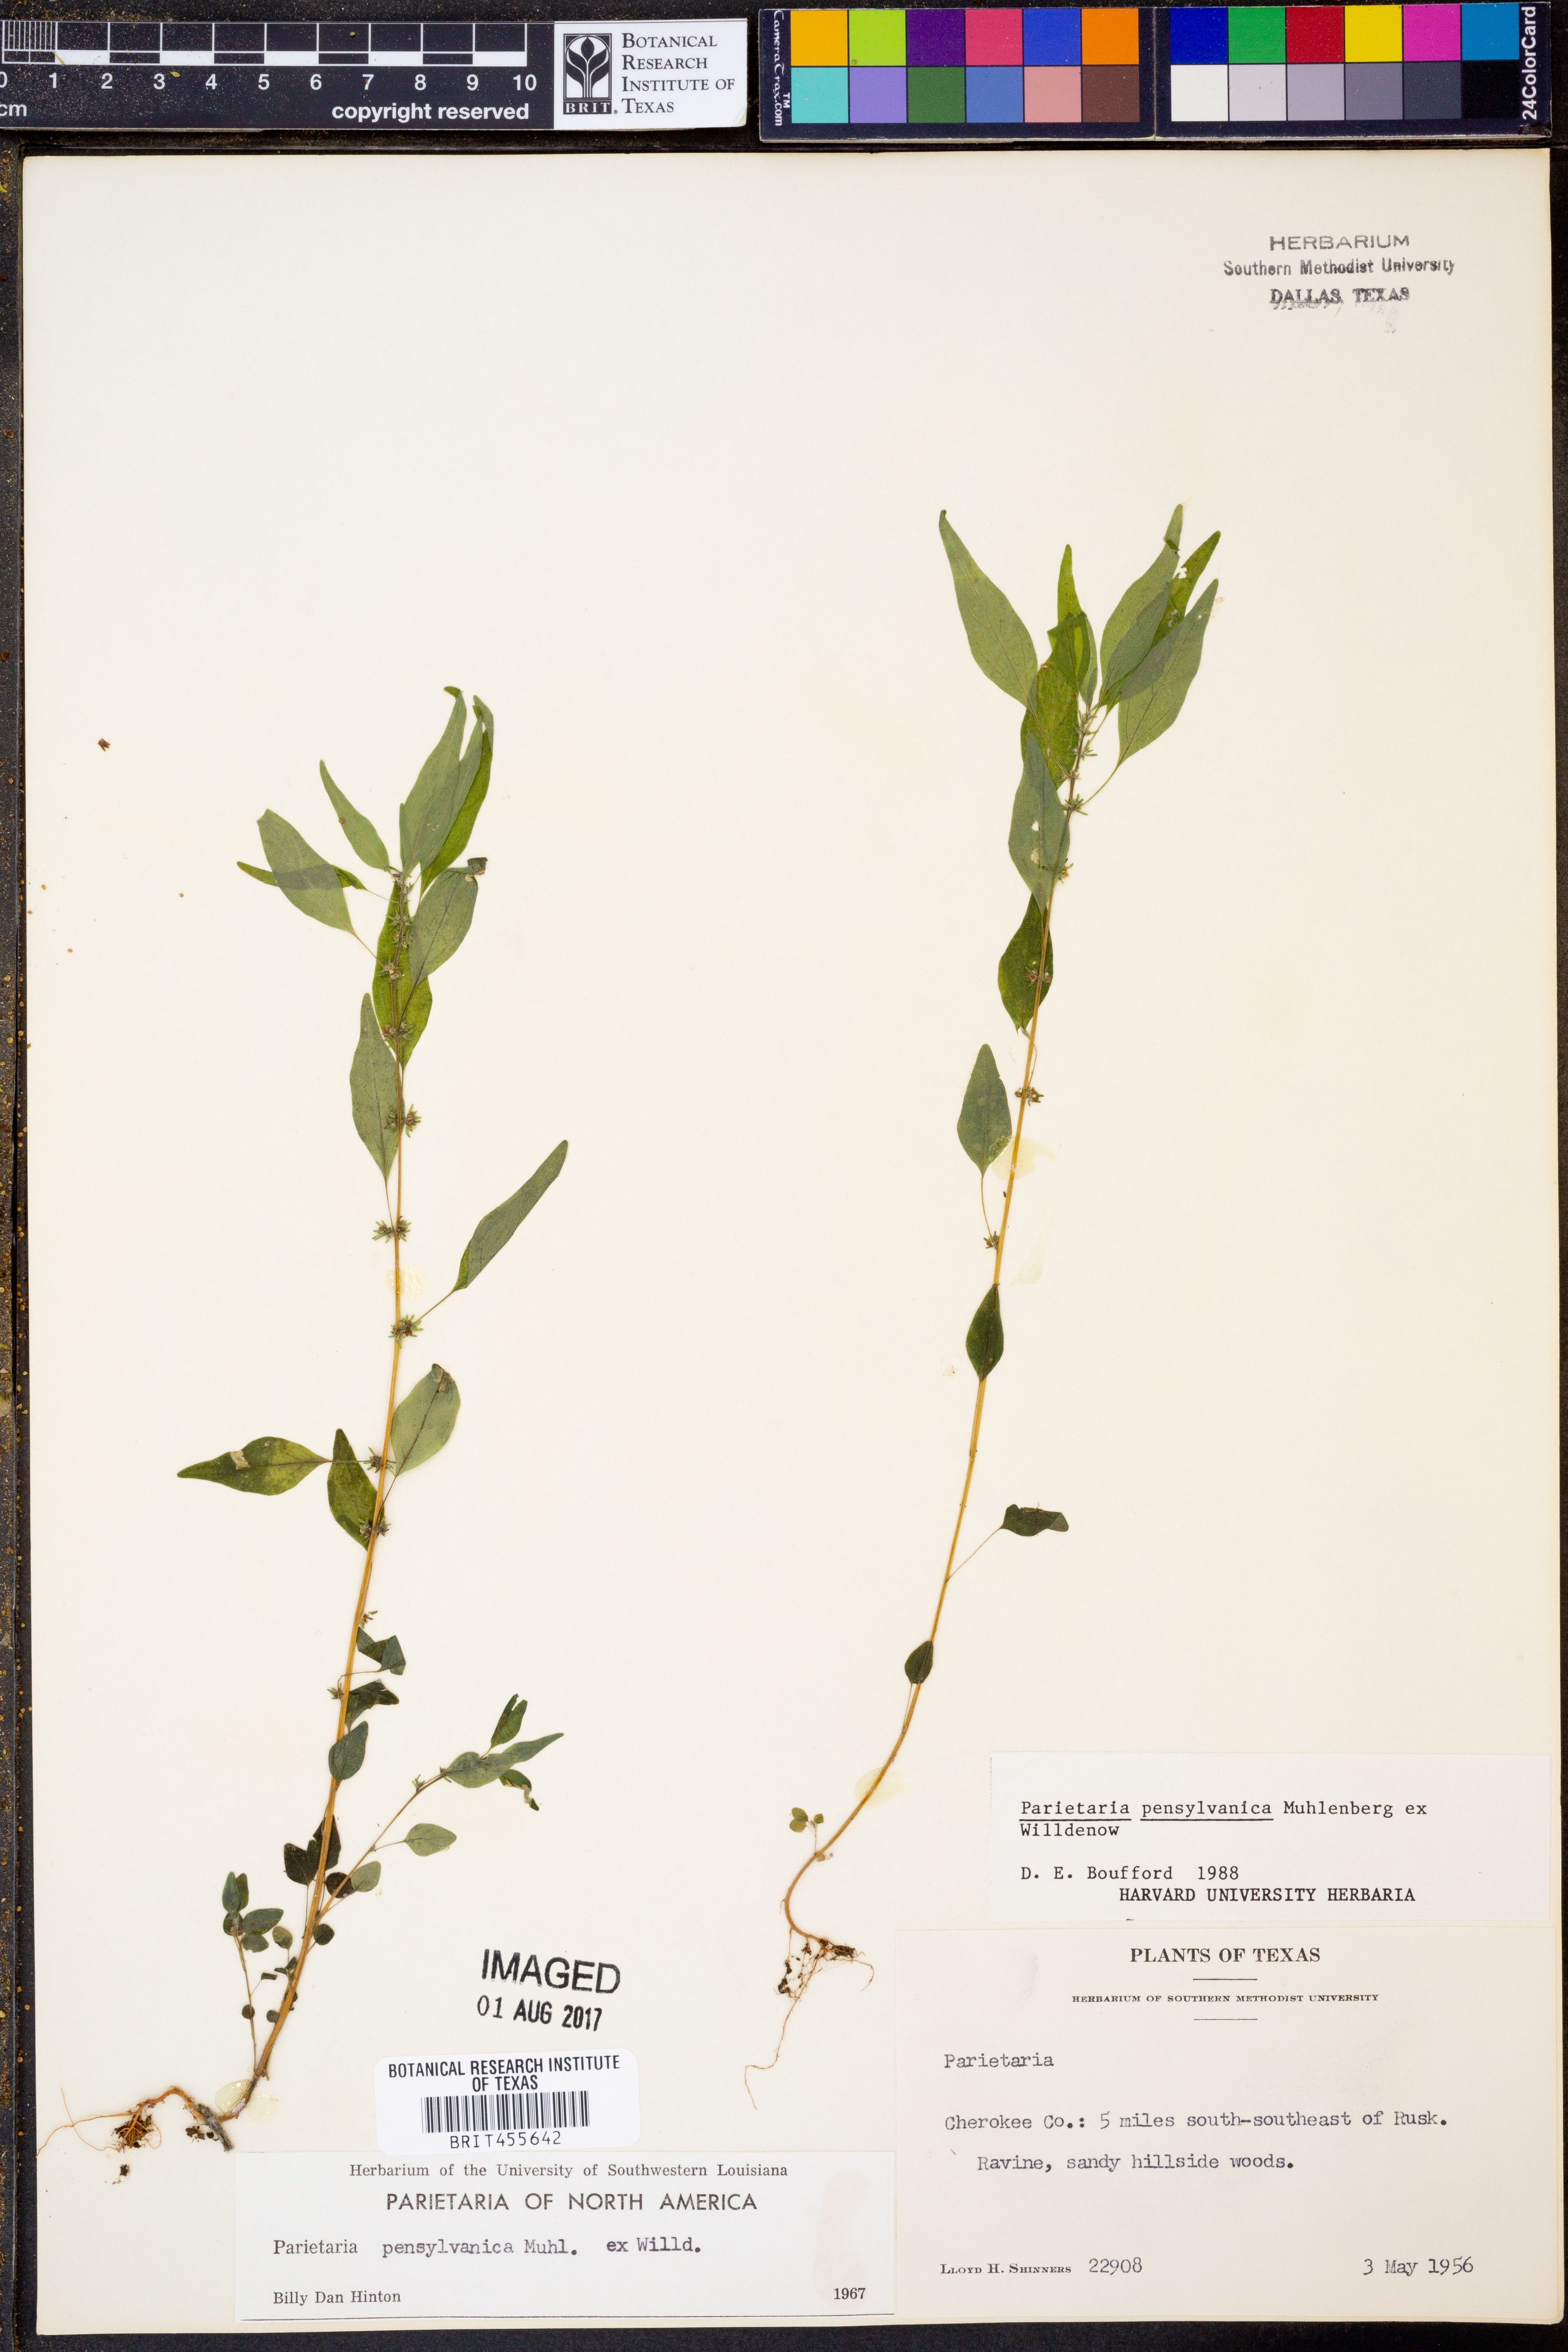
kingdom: Plantae
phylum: Tracheophyta
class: Magnoliopsida
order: Rosales
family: Urticaceae
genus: Parietaria
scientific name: Parietaria pensylvanica
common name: Pennsylvania pellitory
